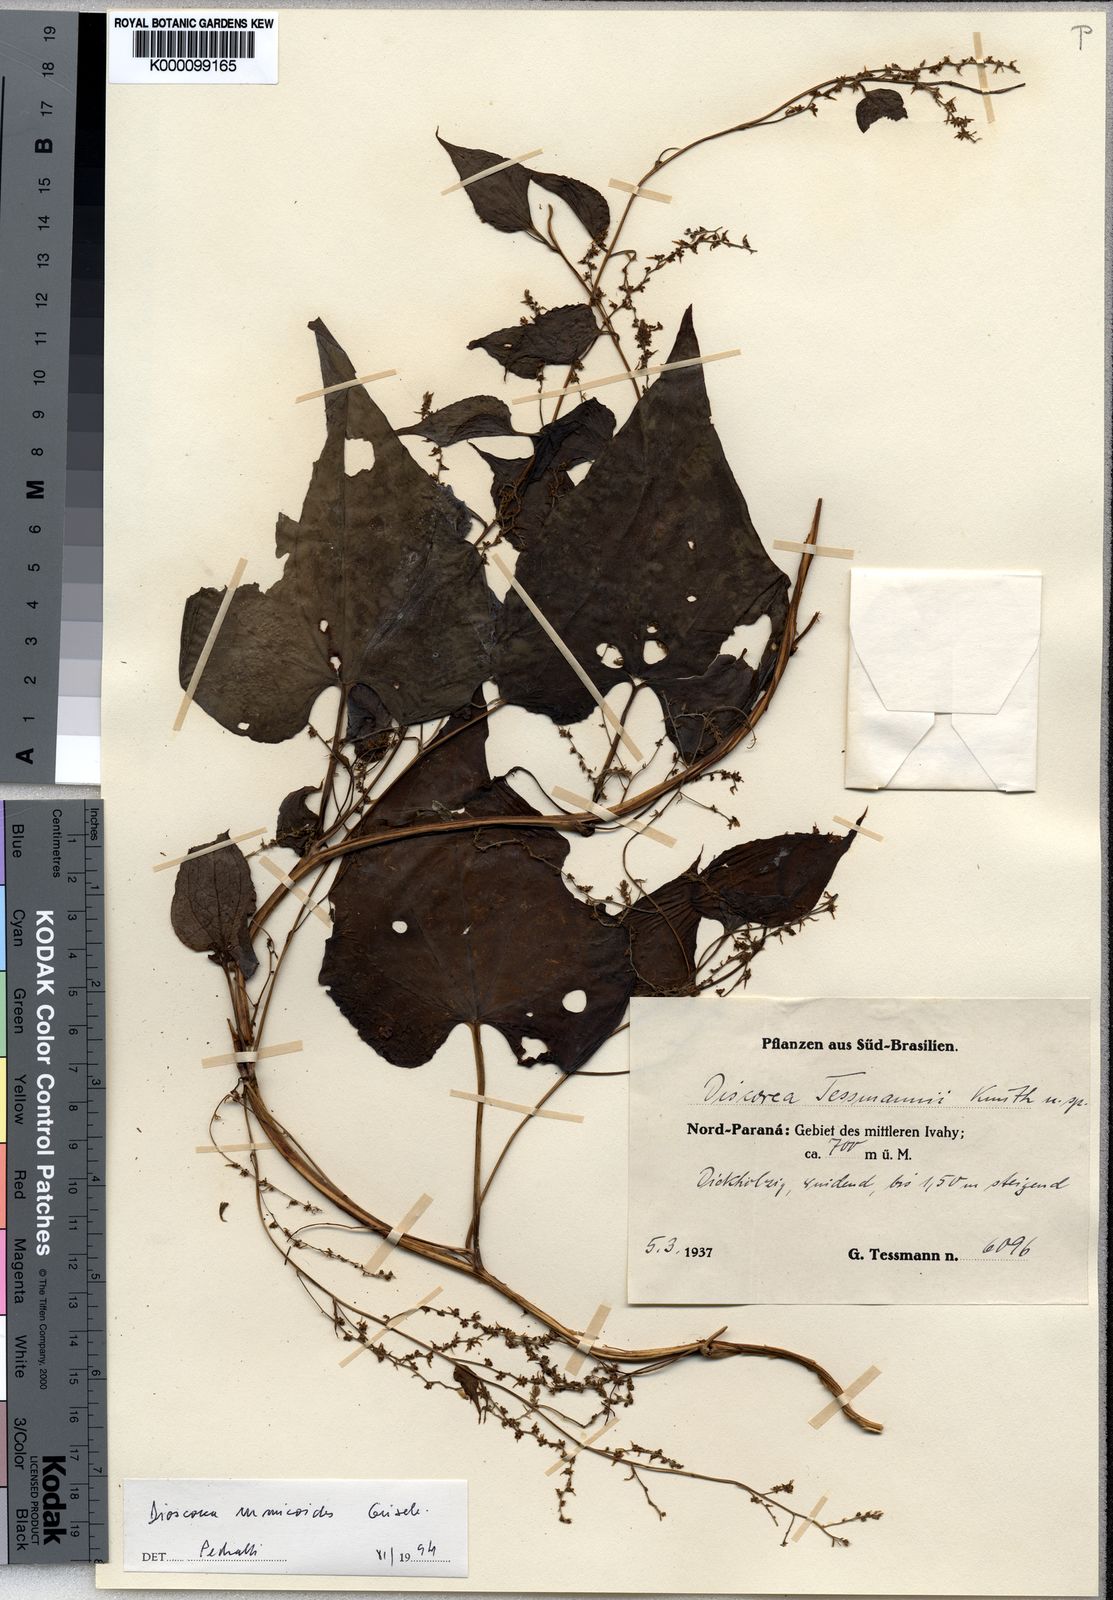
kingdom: Plantae
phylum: Tracheophyta
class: Liliopsida
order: Dioscoreales
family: Dioscoreaceae
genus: Dioscorea
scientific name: Dioscorea rumicoides
